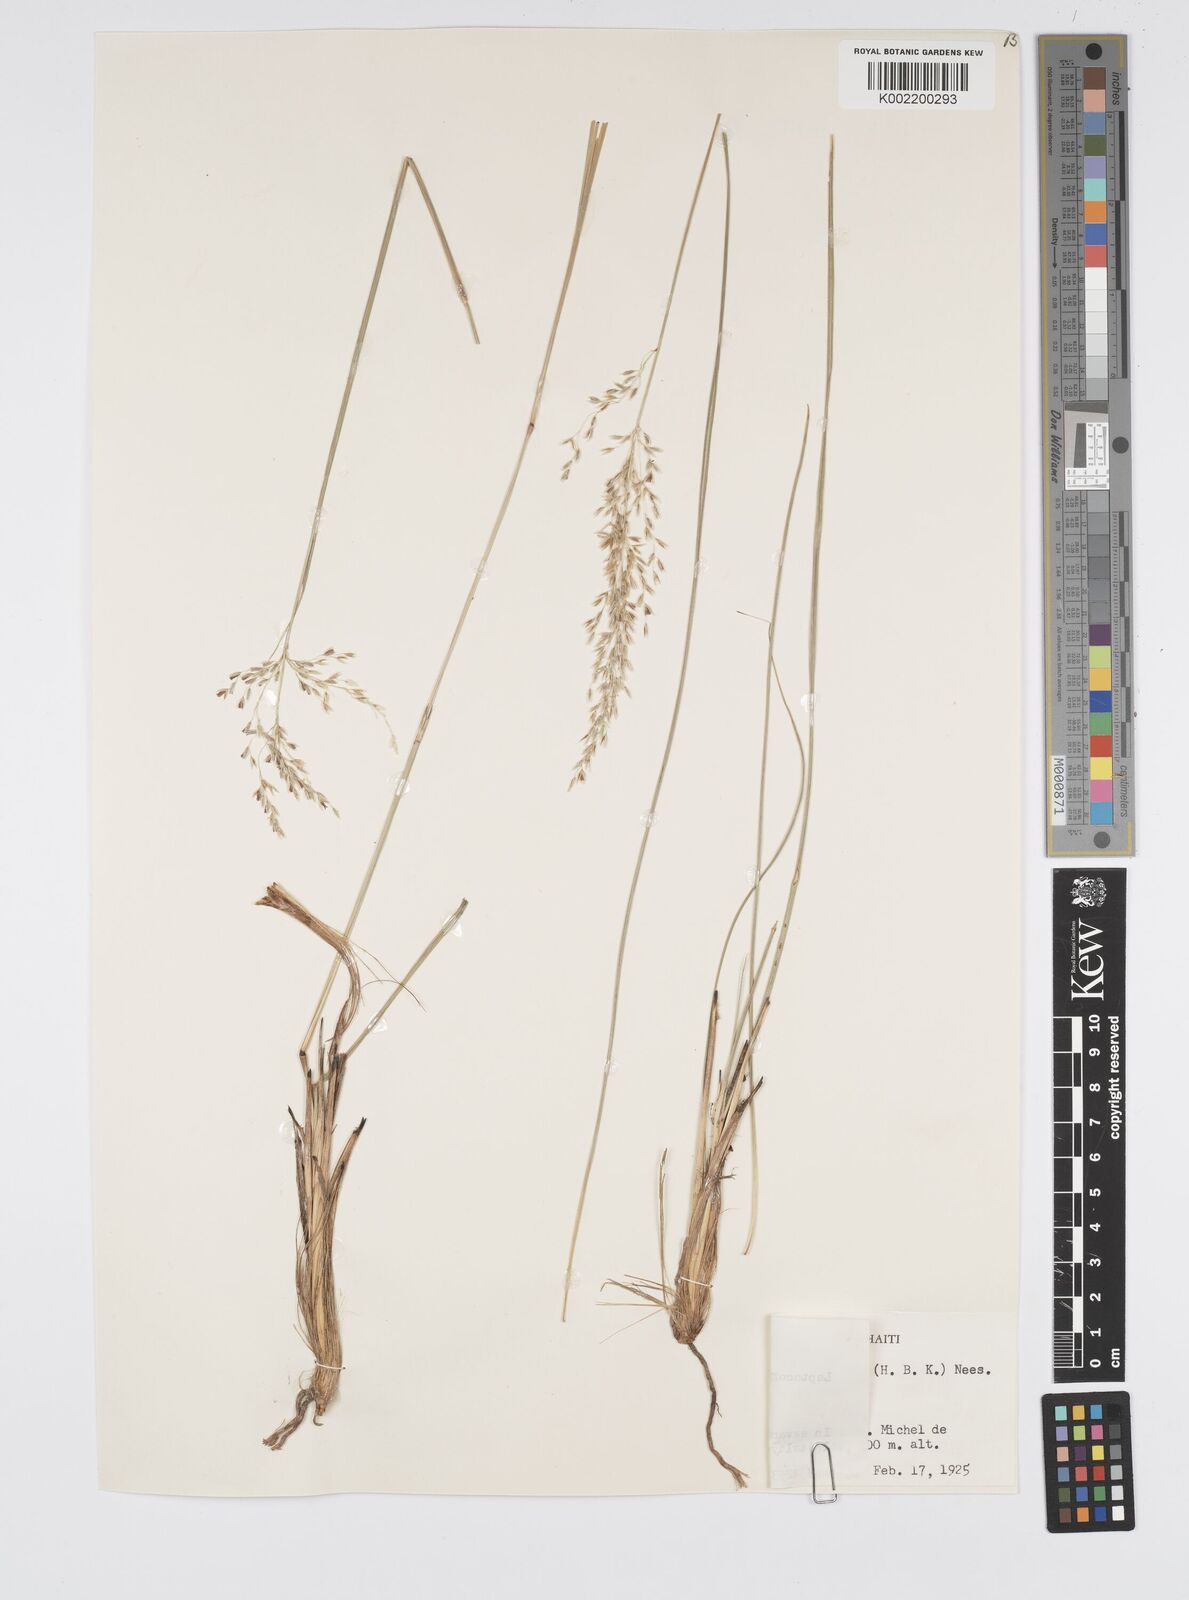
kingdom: Plantae
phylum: Tracheophyta
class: Liliopsida
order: Poales
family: Poaceae
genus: Anthenantia
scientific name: Anthenantia lanata
